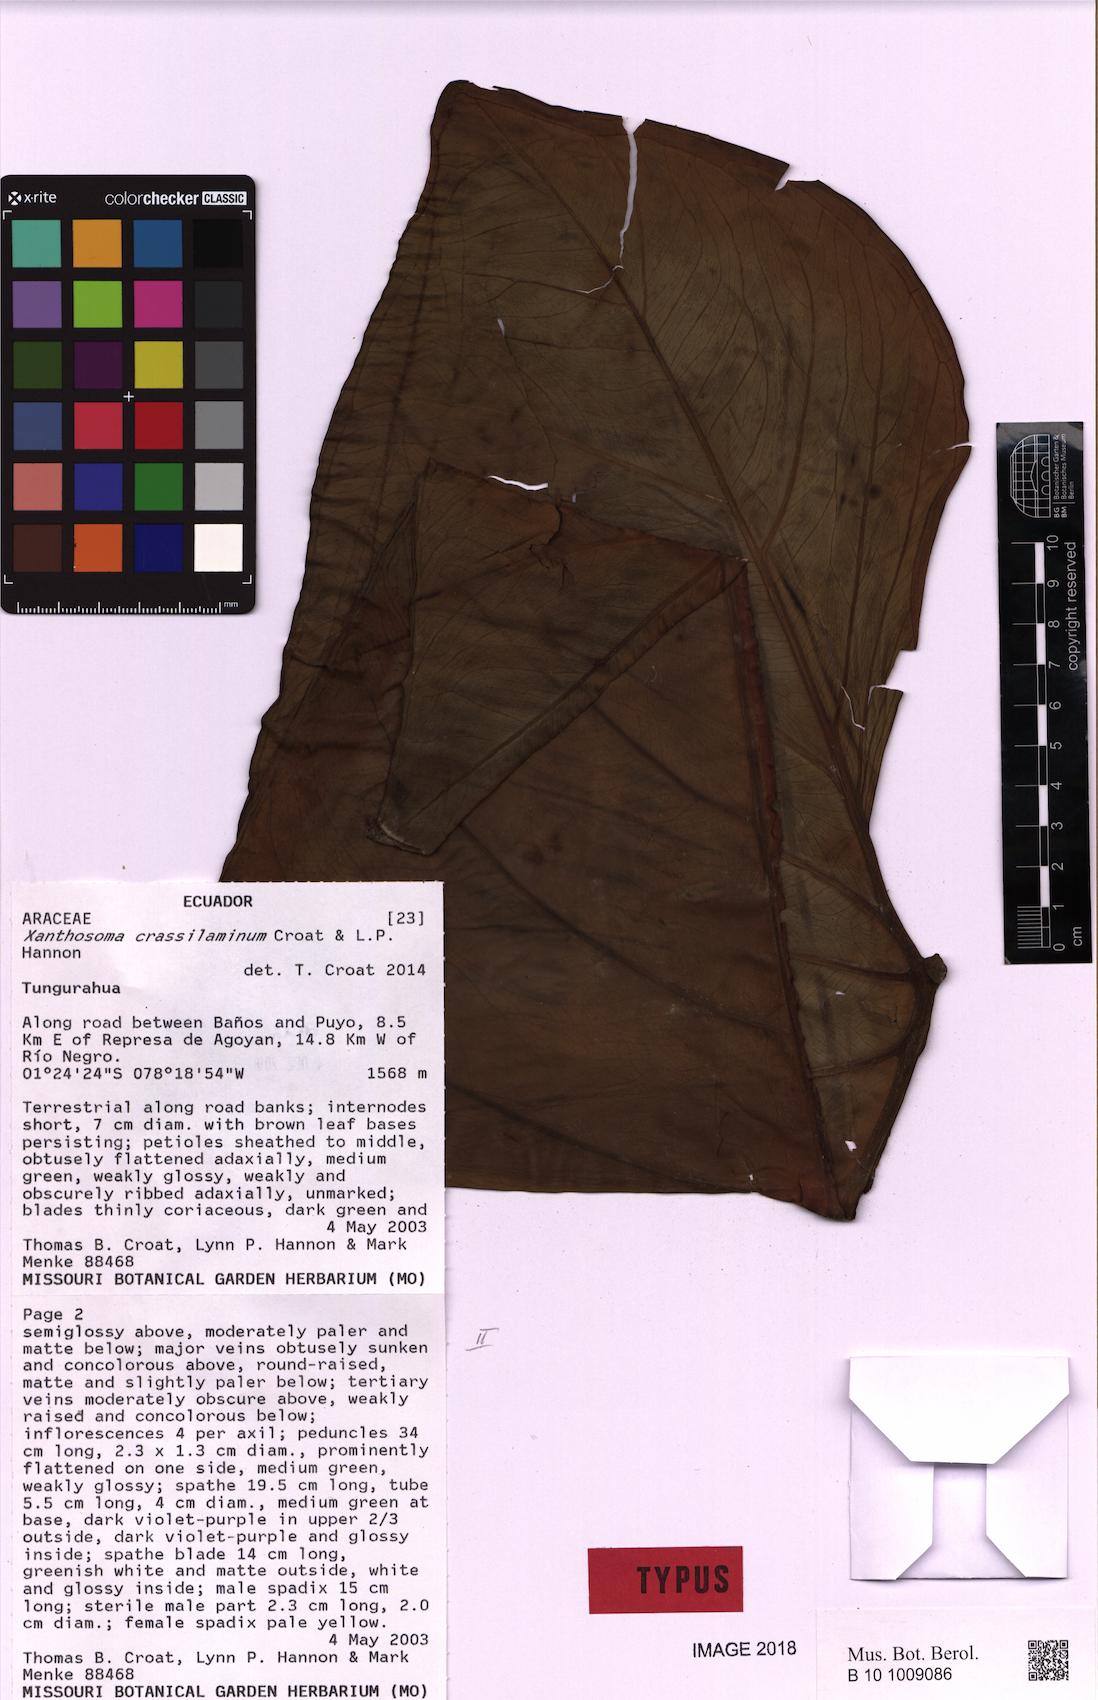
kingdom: Plantae
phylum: Tracheophyta
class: Liliopsida
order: Alismatales
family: Araceae
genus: Xanthosoma
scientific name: Xanthosoma crassilaminum
